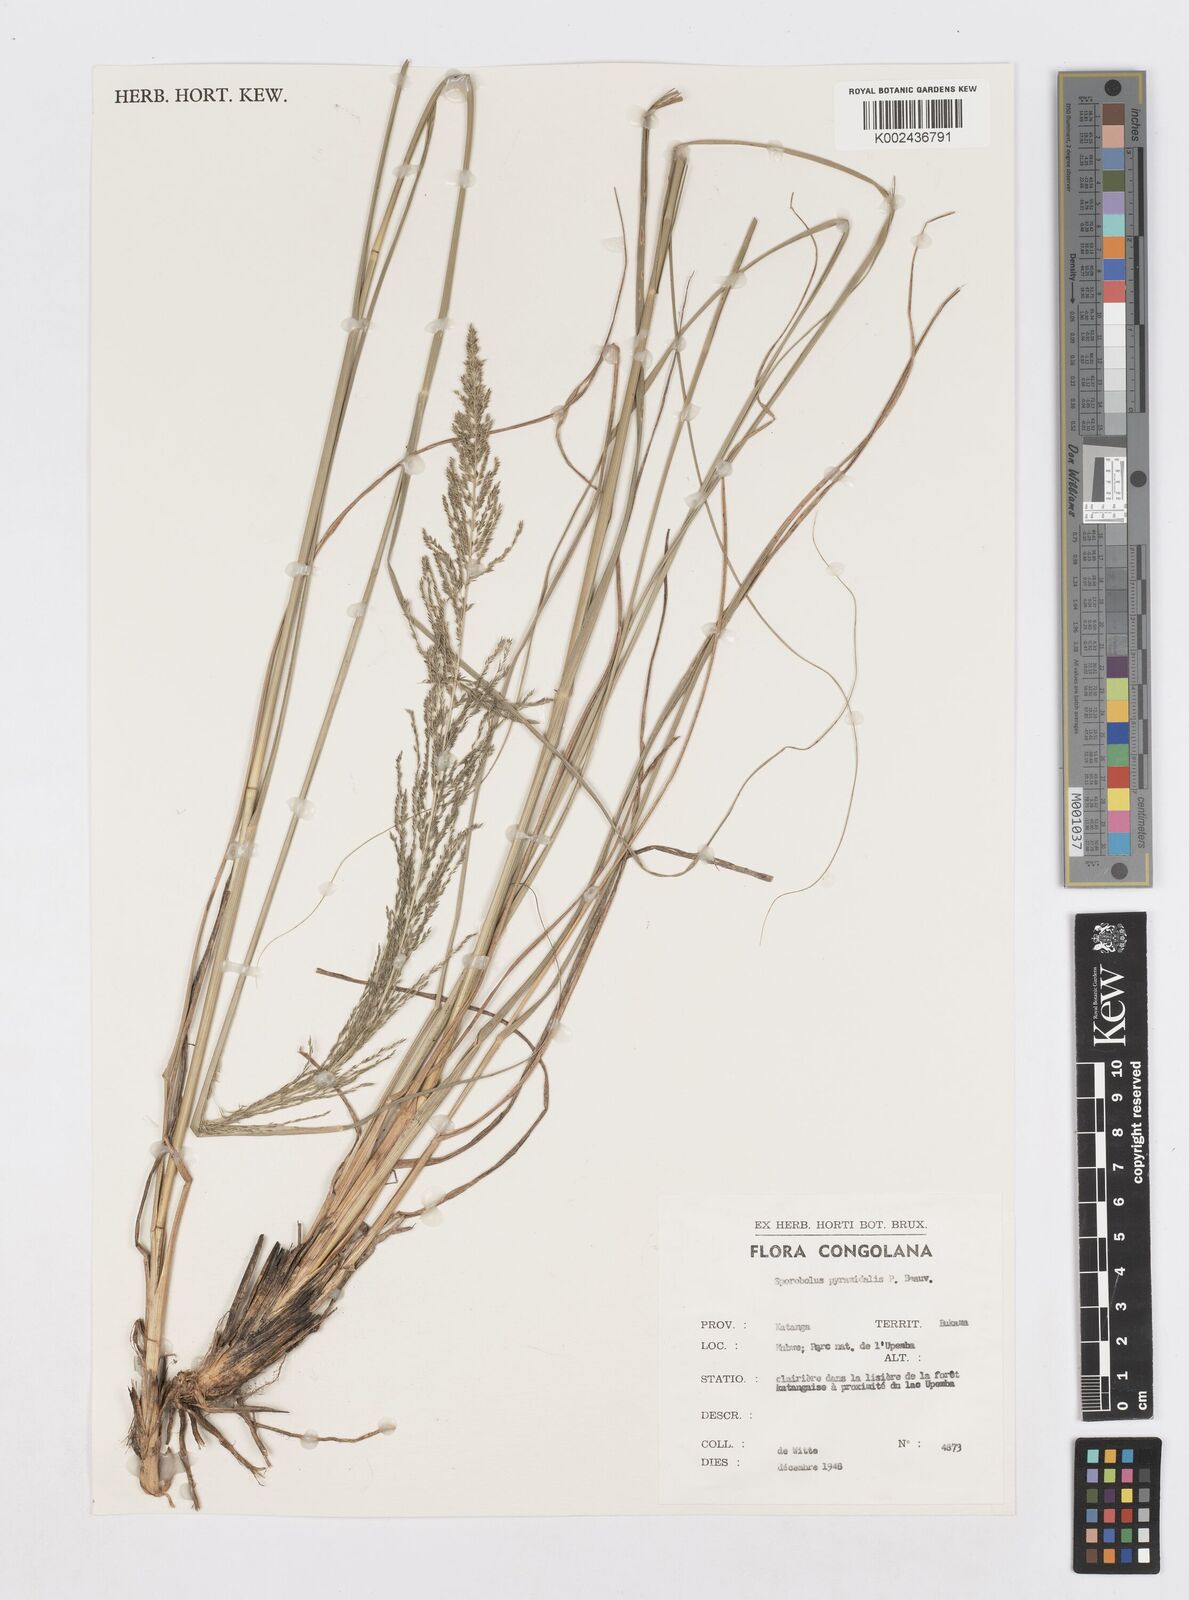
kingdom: Plantae
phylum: Tracheophyta
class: Liliopsida
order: Poales
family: Poaceae
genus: Sporobolus
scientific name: Sporobolus pyramidalis
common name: West indian dropseed
